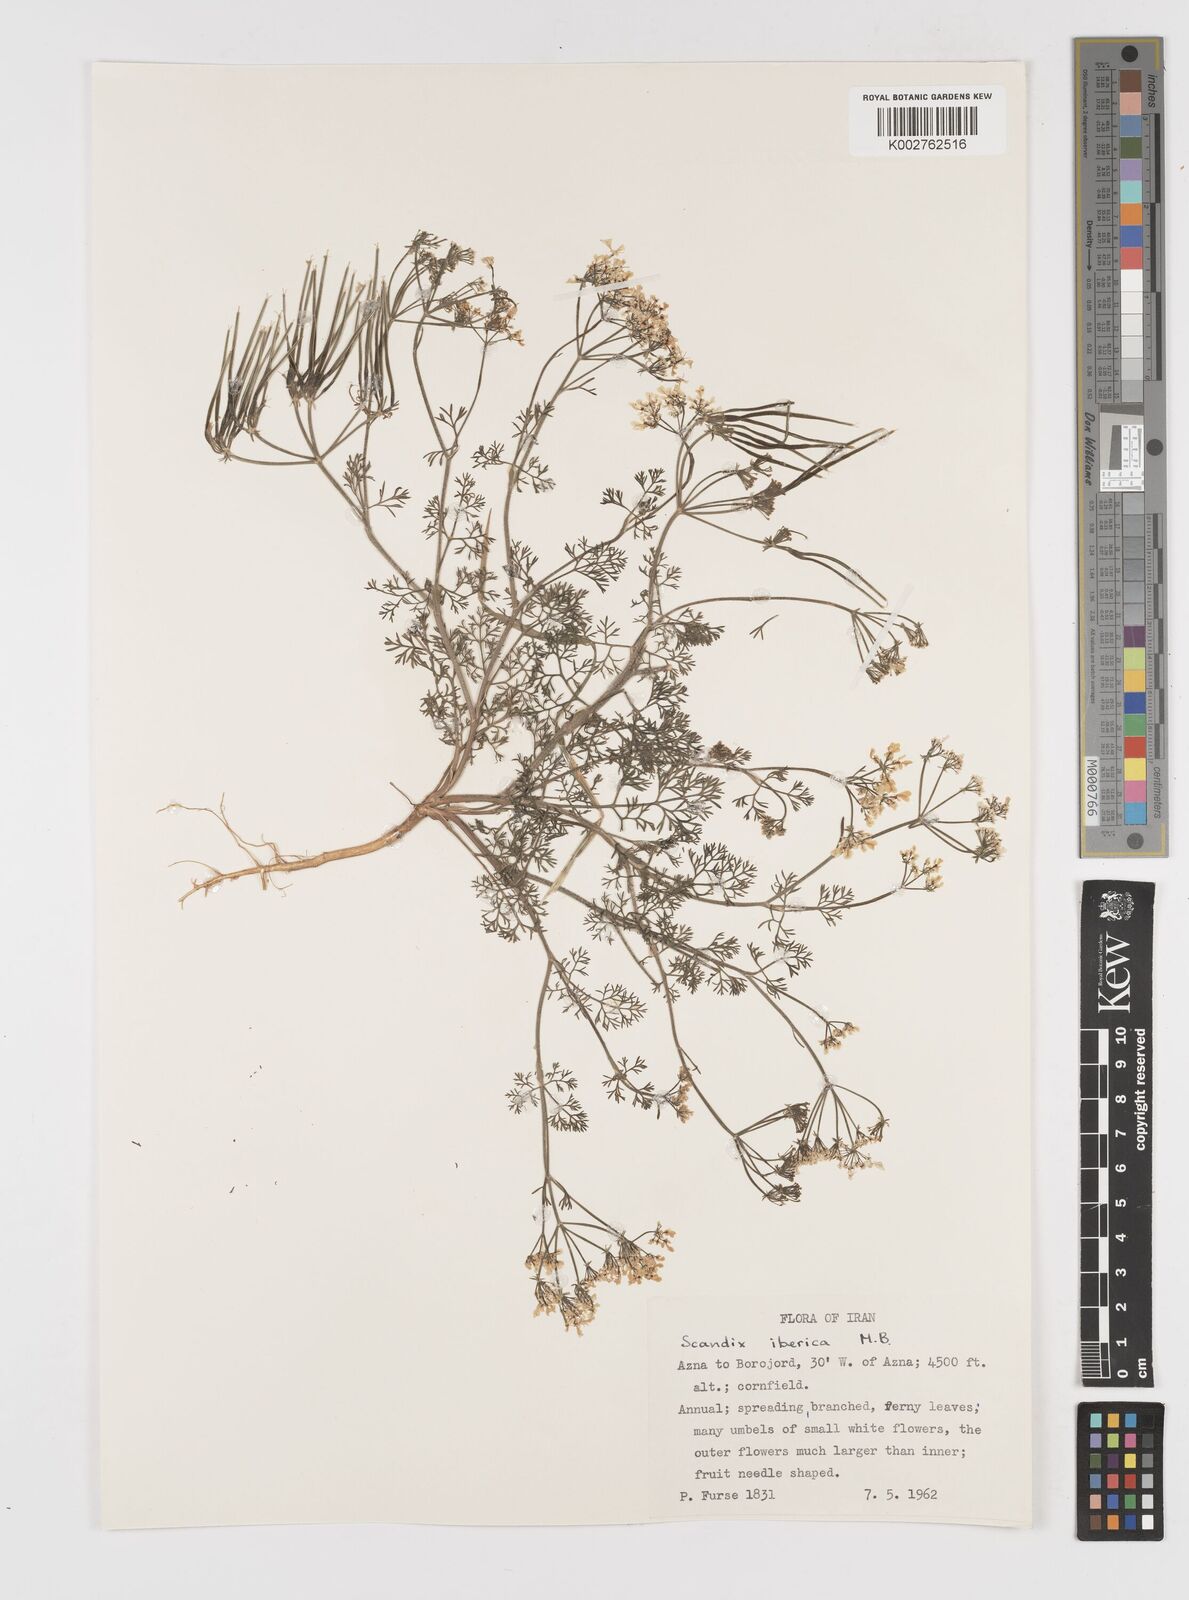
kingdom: Plantae
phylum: Tracheophyta
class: Magnoliopsida
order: Apiales
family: Apiaceae
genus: Scandix
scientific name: Scandix iberica
